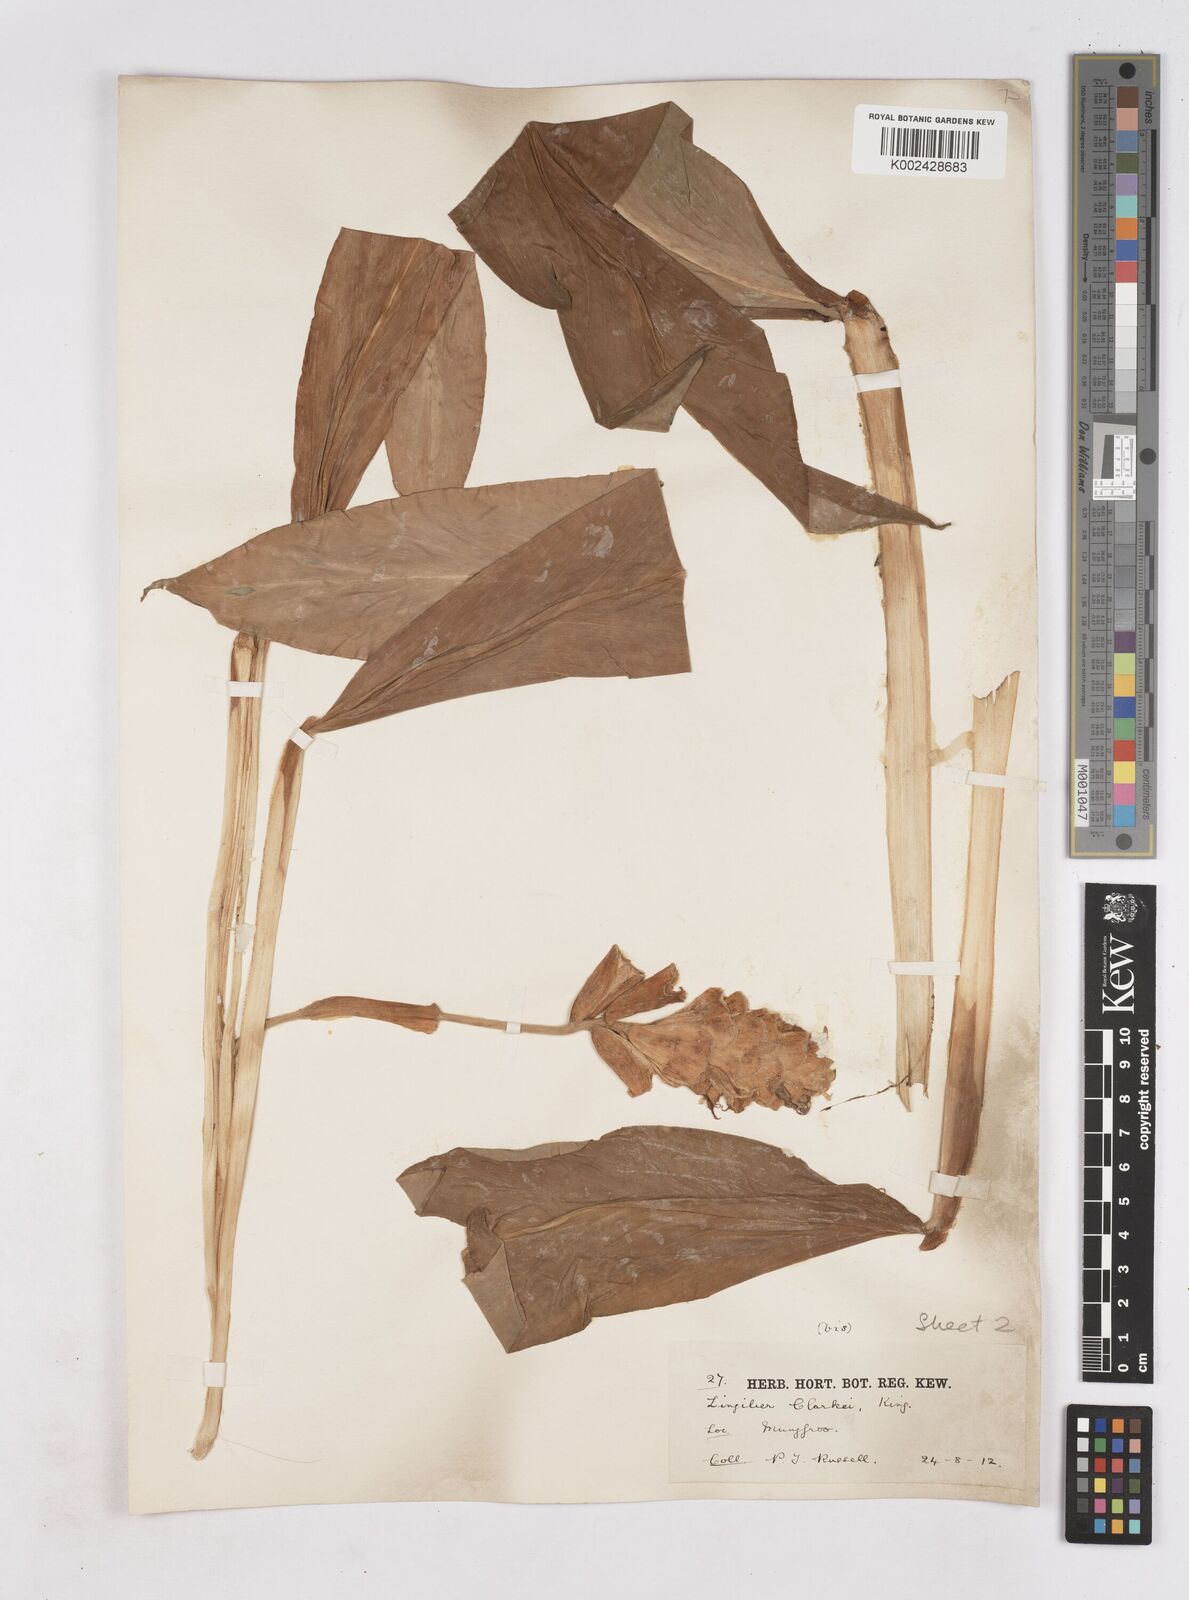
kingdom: Plantae
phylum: Tracheophyta
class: Liliopsida
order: Zingiberales
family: Zingiberaceae
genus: Zingiber
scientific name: Zingiber clarkei
